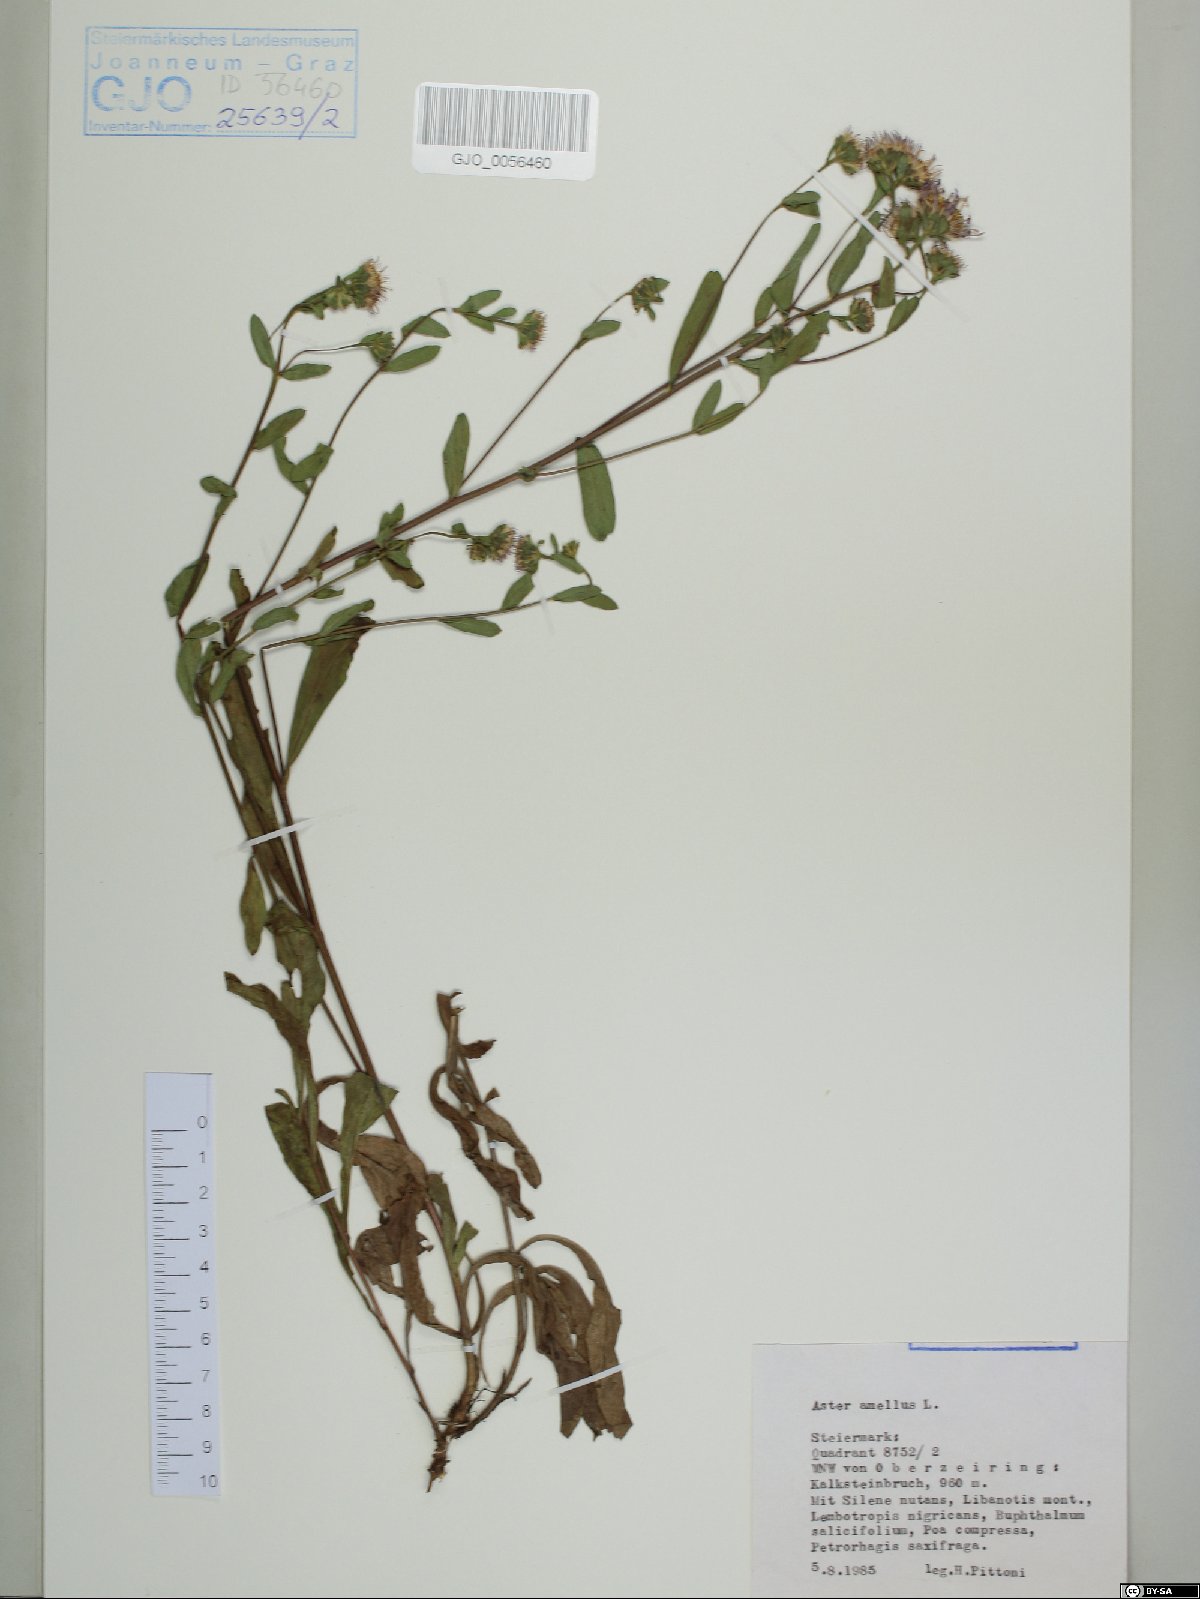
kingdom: Plantae
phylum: Tracheophyta
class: Magnoliopsida
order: Asterales
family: Asteraceae
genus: Aster
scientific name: Aster amellus
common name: European michaelmas daisy
